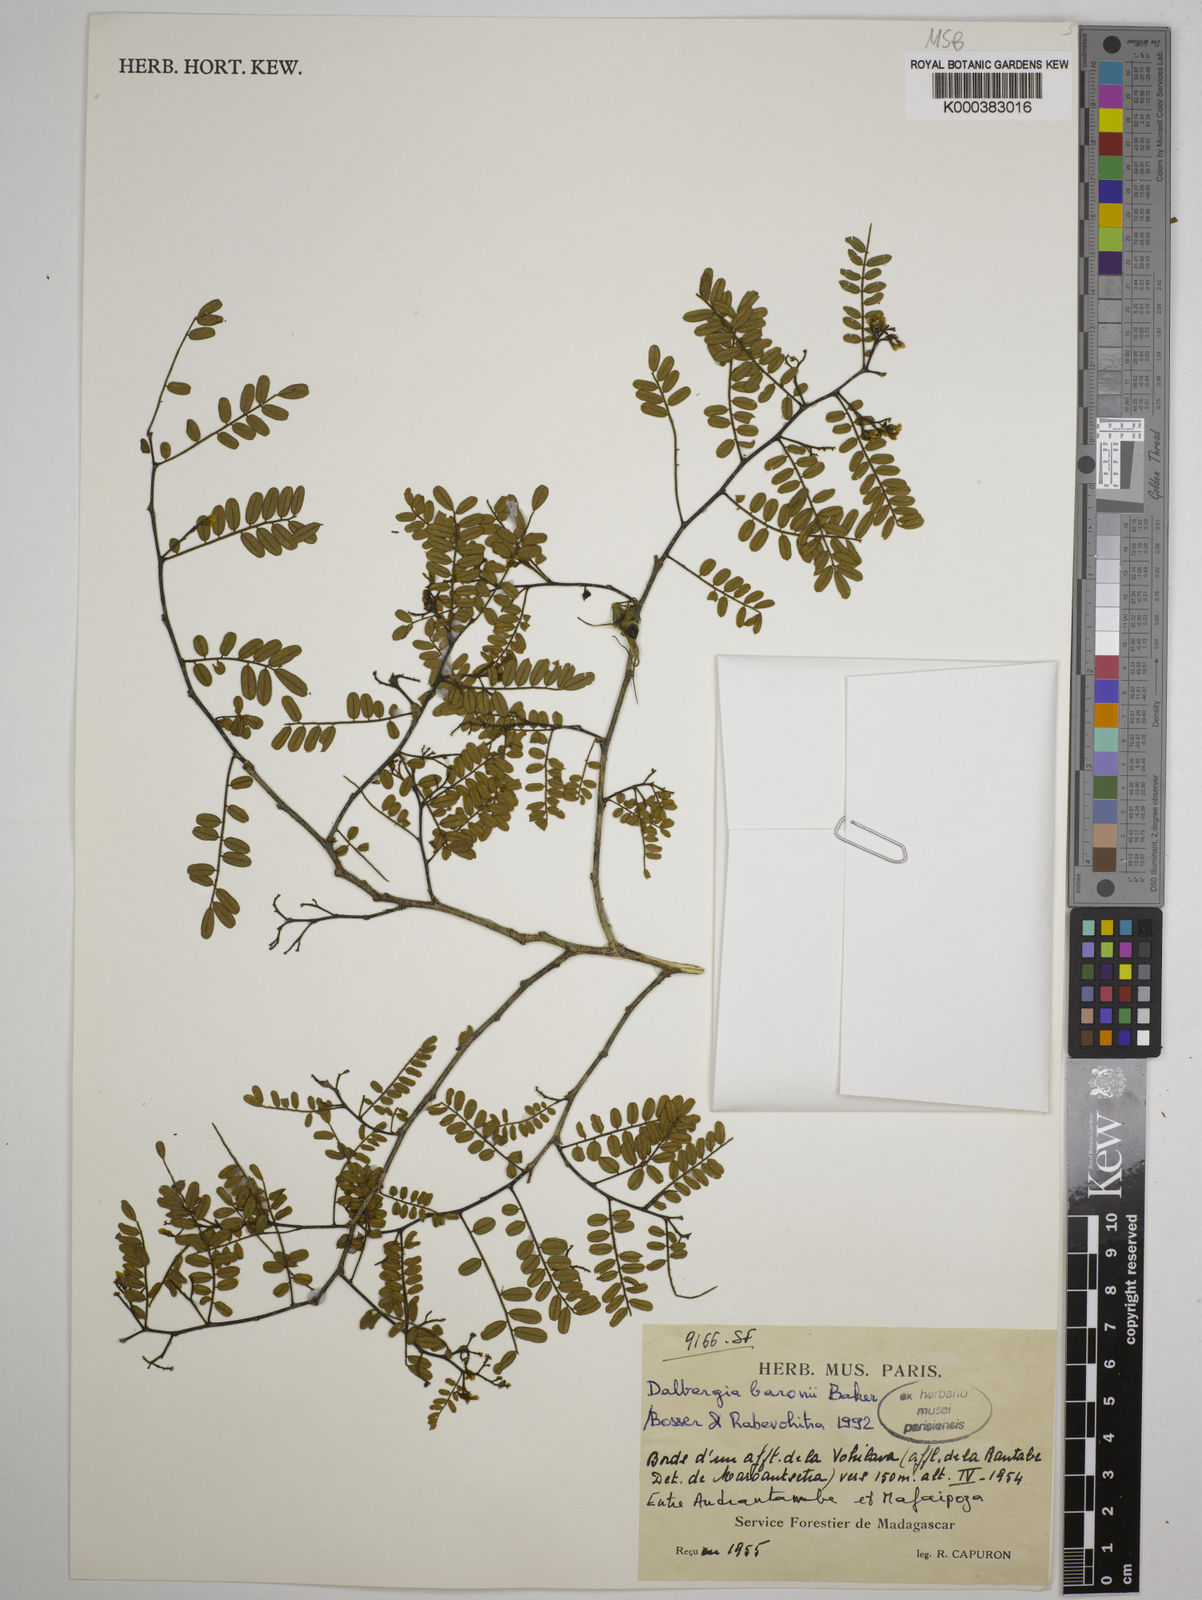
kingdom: Plantae
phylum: Tracheophyta
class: Magnoliopsida
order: Fabales
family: Fabaceae
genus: Dalbergia
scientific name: Dalbergia baronii
